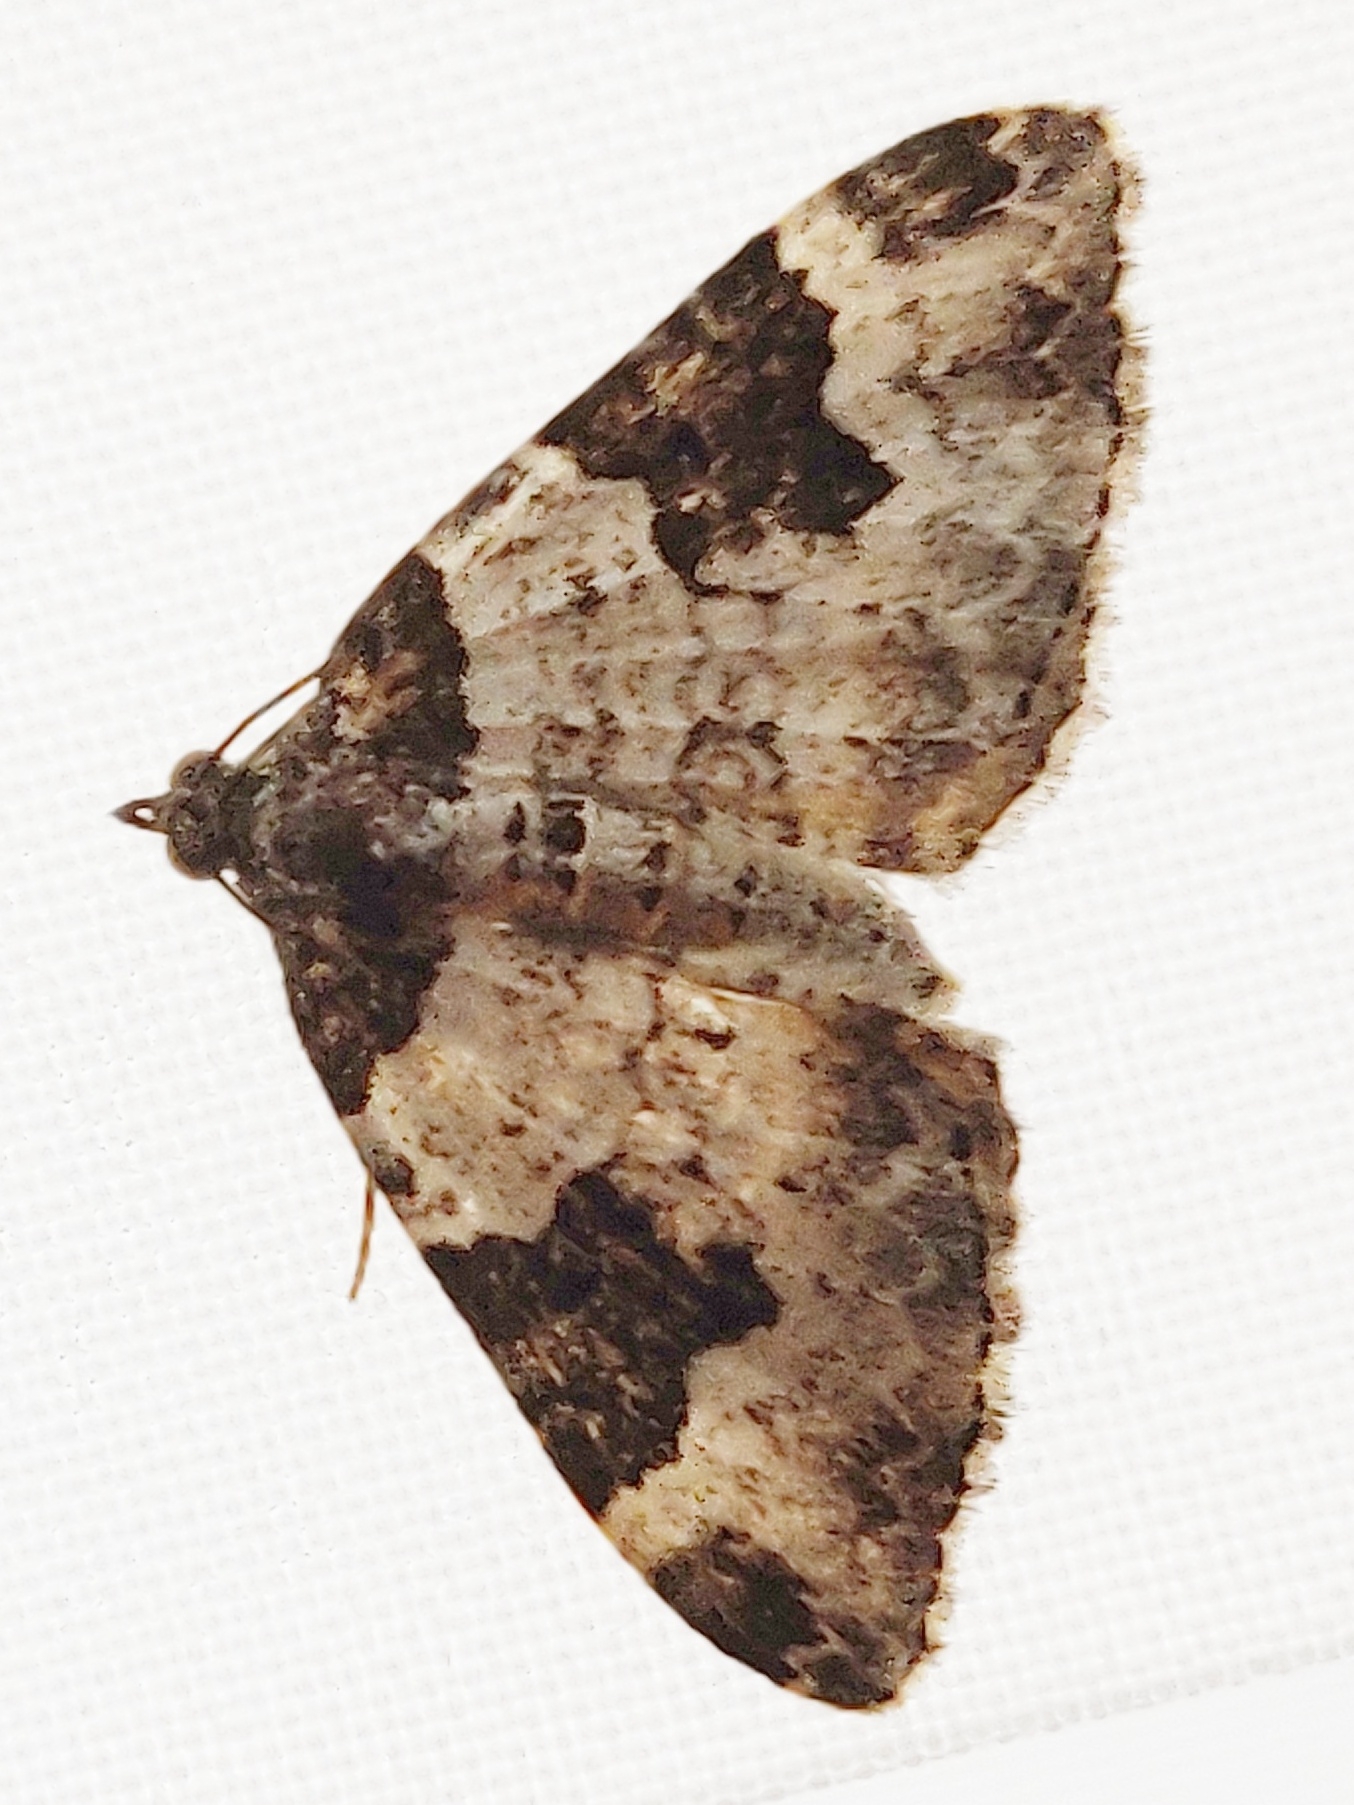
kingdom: Animalia
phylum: Arthropoda
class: Insecta
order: Lepidoptera
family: Geometridae
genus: Xanthorhoe
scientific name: Xanthorhoe fluctuata
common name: Sortbæltet bladmåler
